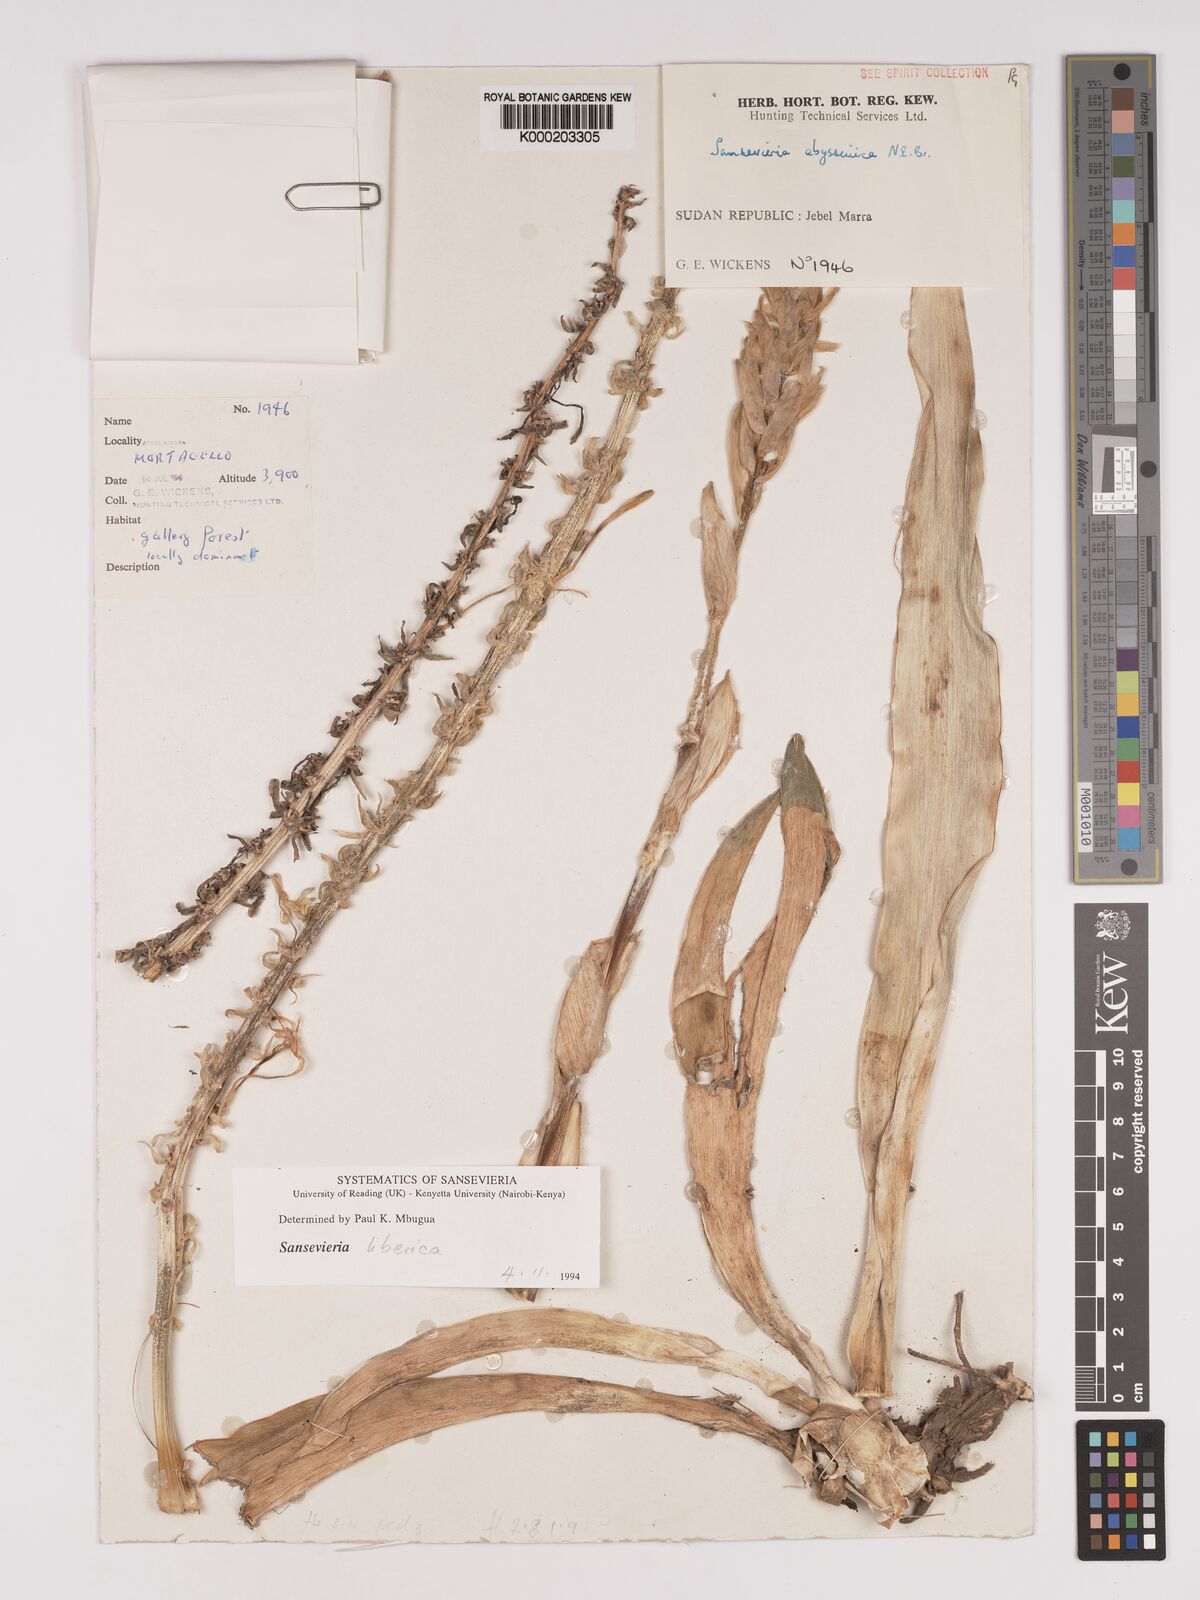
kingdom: Plantae
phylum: Tracheophyta
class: Liliopsida
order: Asparagales
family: Asparagaceae
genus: Dracaena
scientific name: Dracaena
